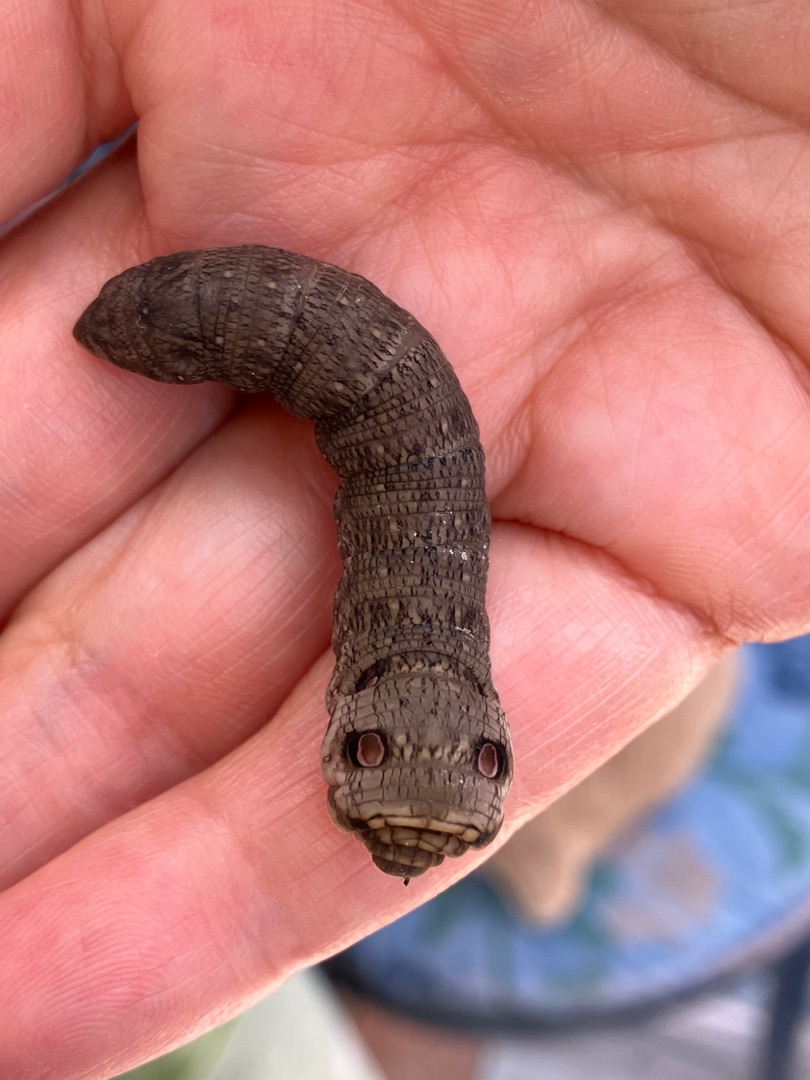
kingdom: Animalia
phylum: Arthropoda
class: Insecta
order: Lepidoptera
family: Sphingidae
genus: Deilephila
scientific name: Deilephila porcellus
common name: Lille vinsværmer
